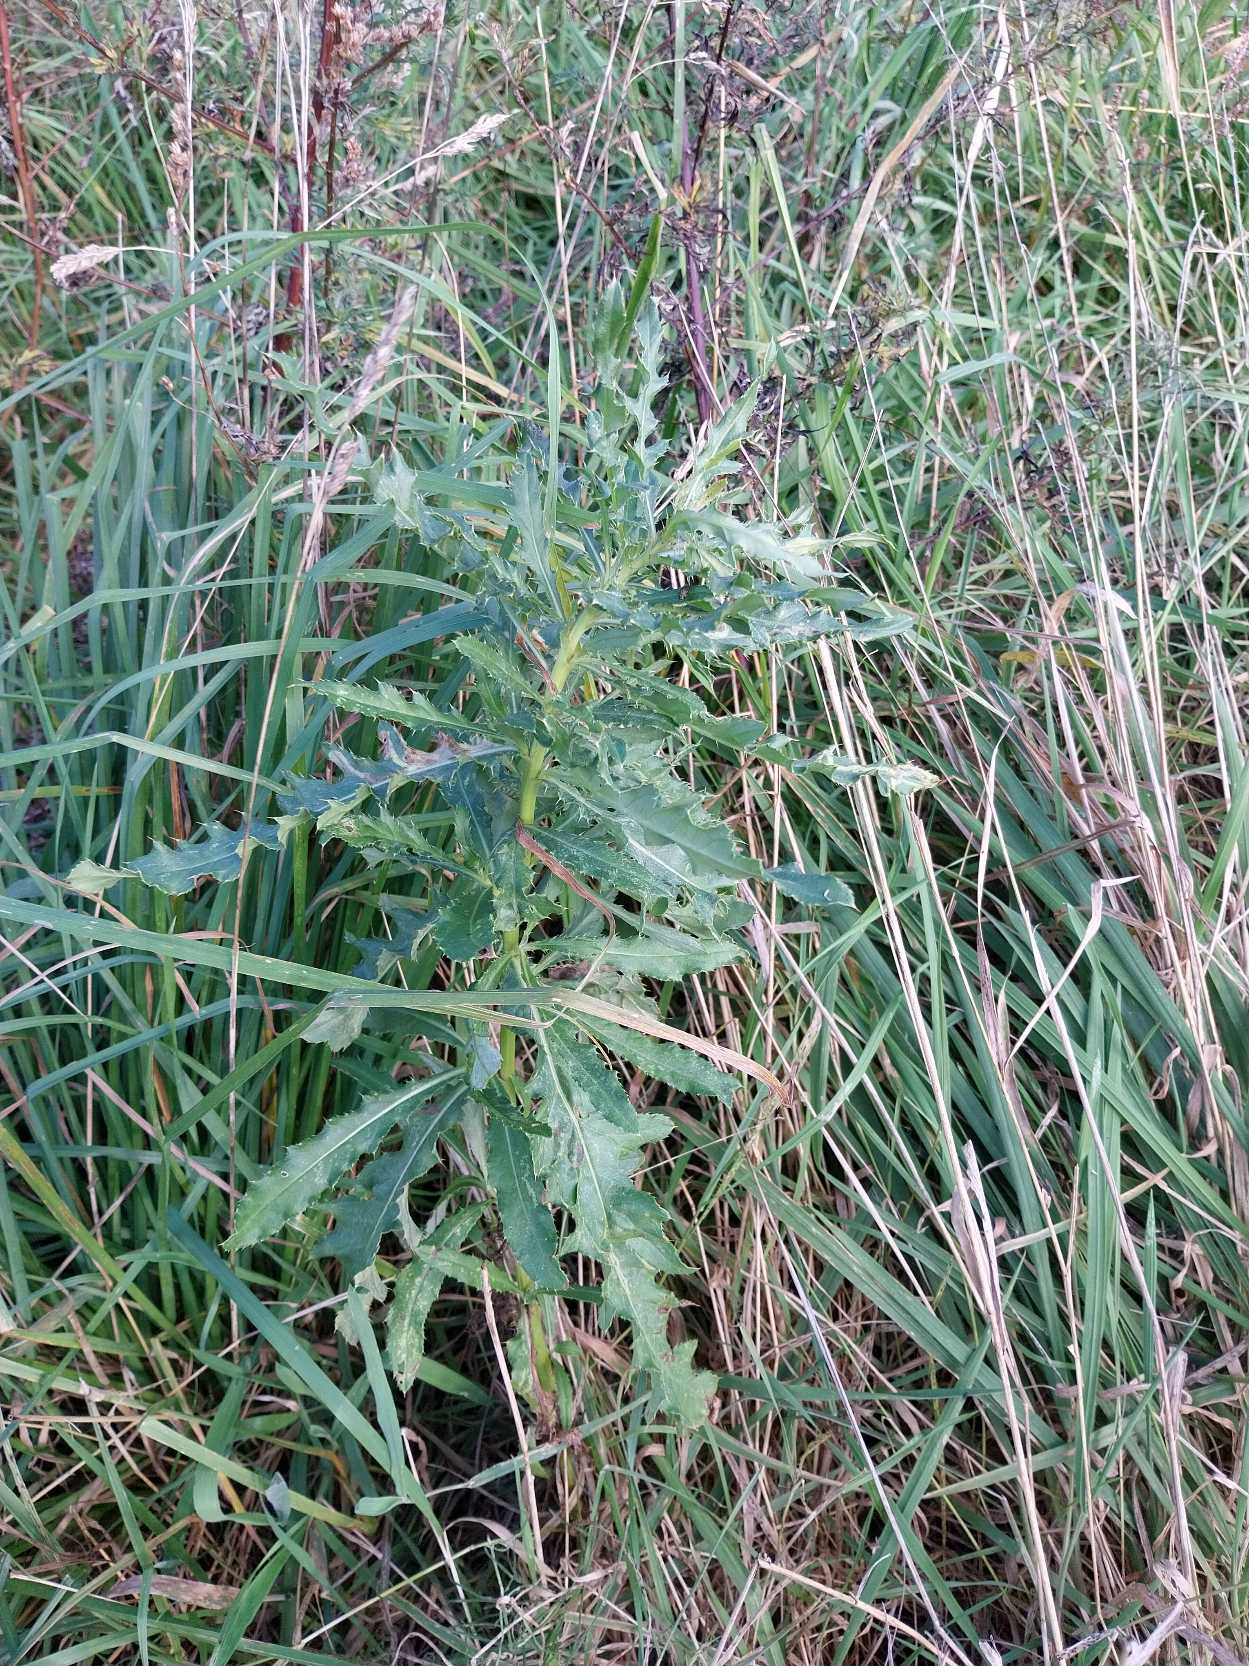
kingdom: Plantae
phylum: Tracheophyta
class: Magnoliopsida
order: Asterales
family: Asteraceae
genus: Cirsium
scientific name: Cirsium arvense
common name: Ager-tidsel
